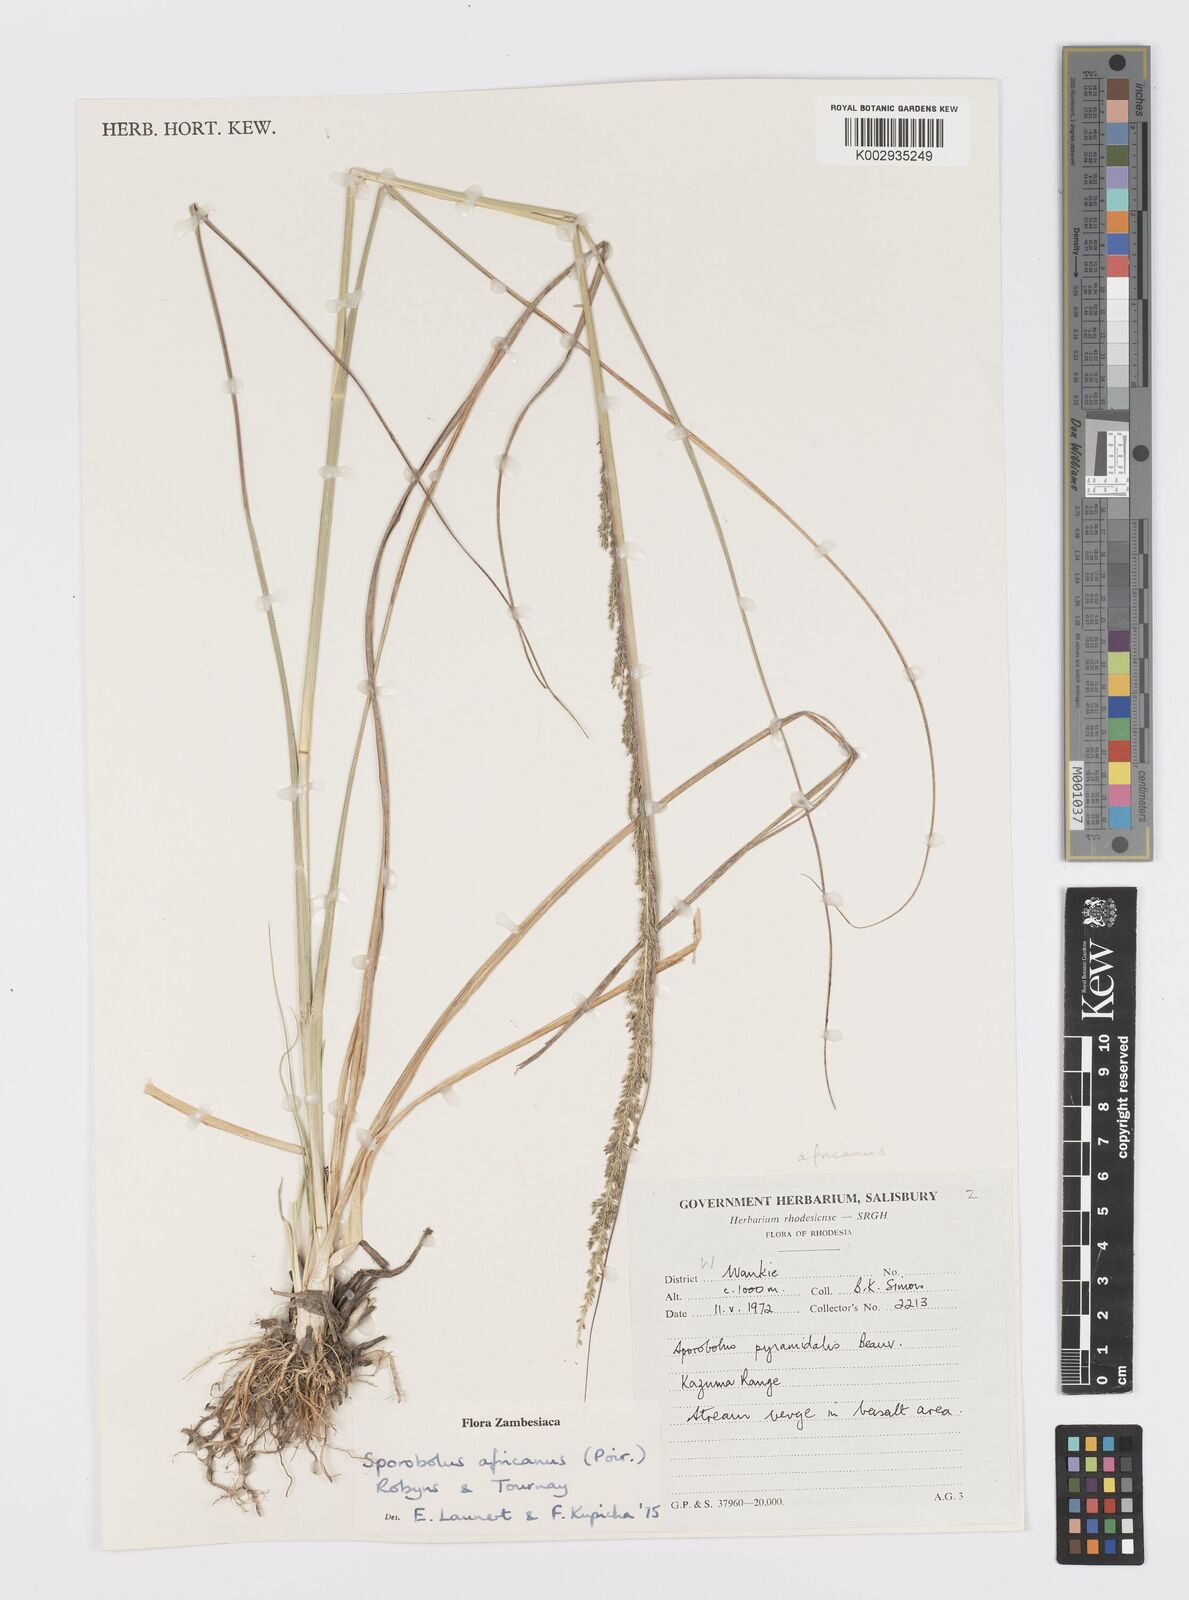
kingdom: Plantae
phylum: Tracheophyta
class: Liliopsida
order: Poales
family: Poaceae
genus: Sporobolus
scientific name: Sporobolus africanus
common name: African dropseed
